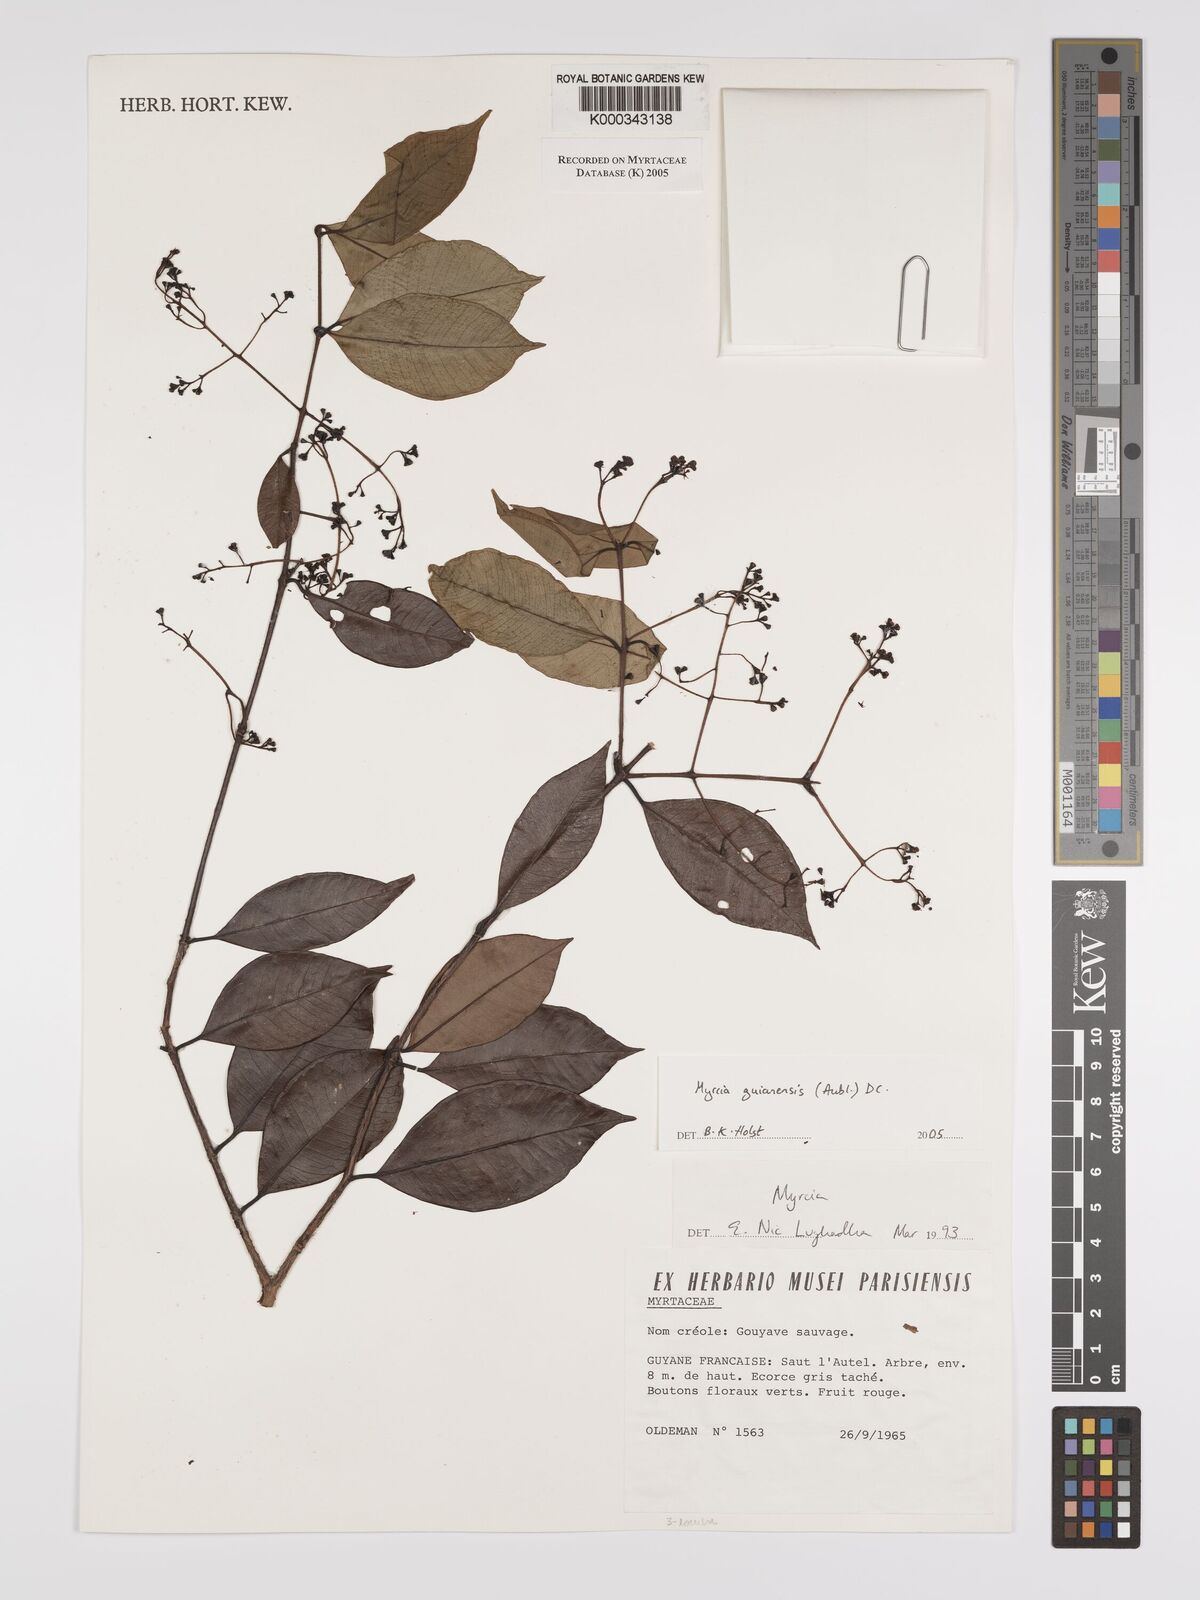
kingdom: Plantae
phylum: Tracheophyta
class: Magnoliopsida
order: Myrtales
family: Myrtaceae
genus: Myrcia
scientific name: Myrcia guianensis
